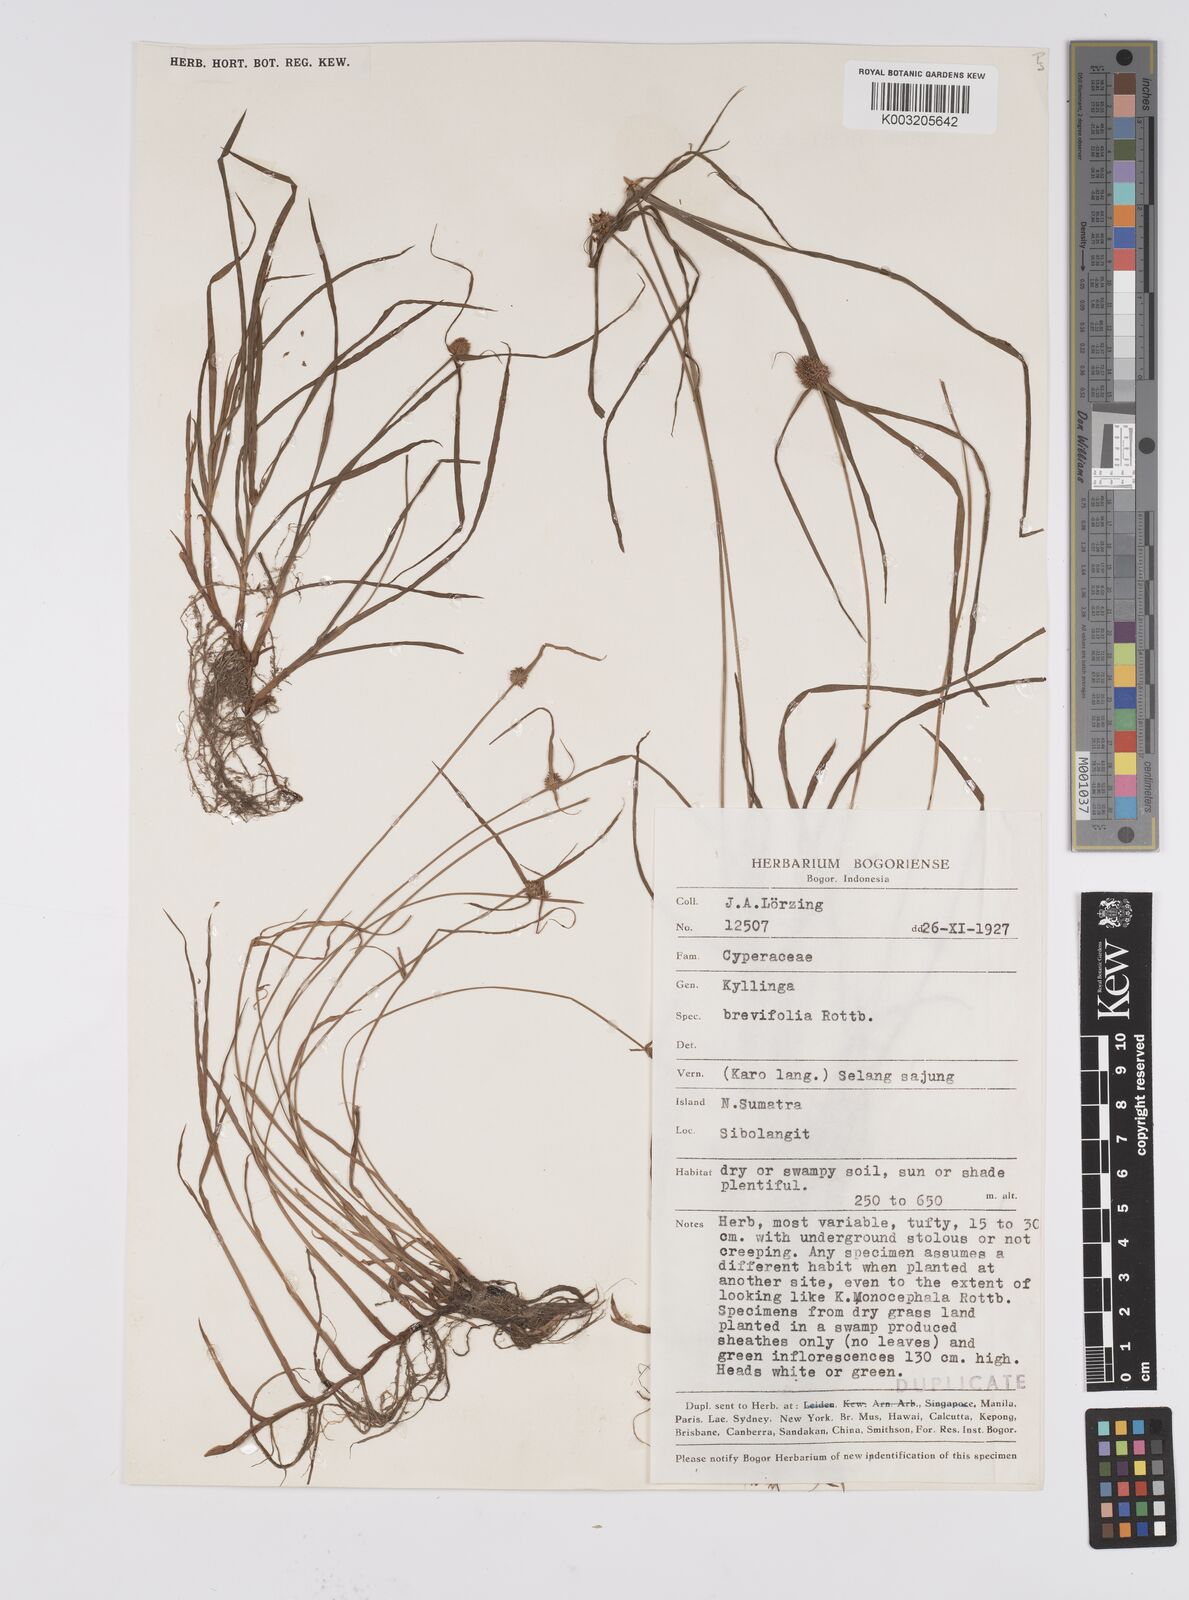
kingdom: Plantae
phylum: Tracheophyta
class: Liliopsida
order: Poales
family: Cyperaceae
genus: Cyperus
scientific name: Cyperus brevifolius
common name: Globe kyllinga
